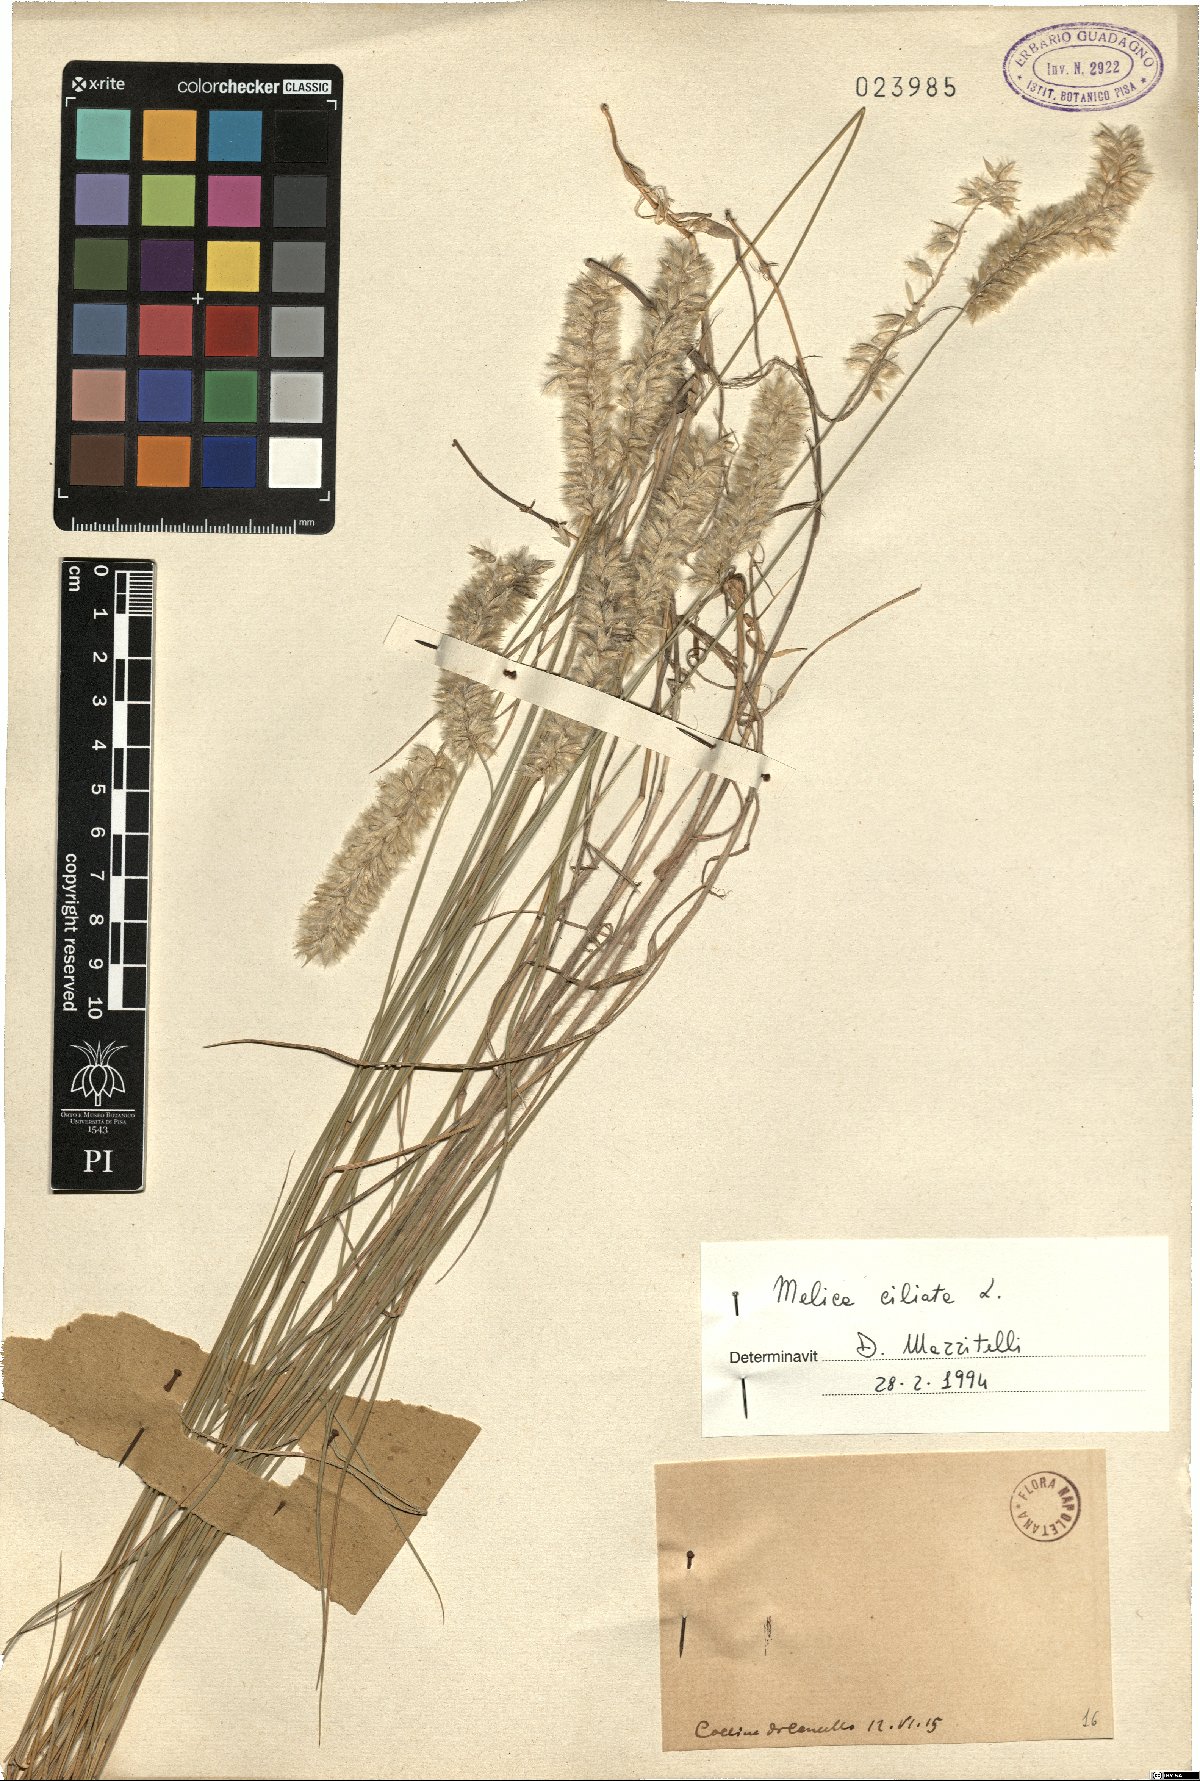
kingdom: Plantae
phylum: Tracheophyta
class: Liliopsida
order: Poales
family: Poaceae
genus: Melica
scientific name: Melica ciliata
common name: Hairy melicgrass
